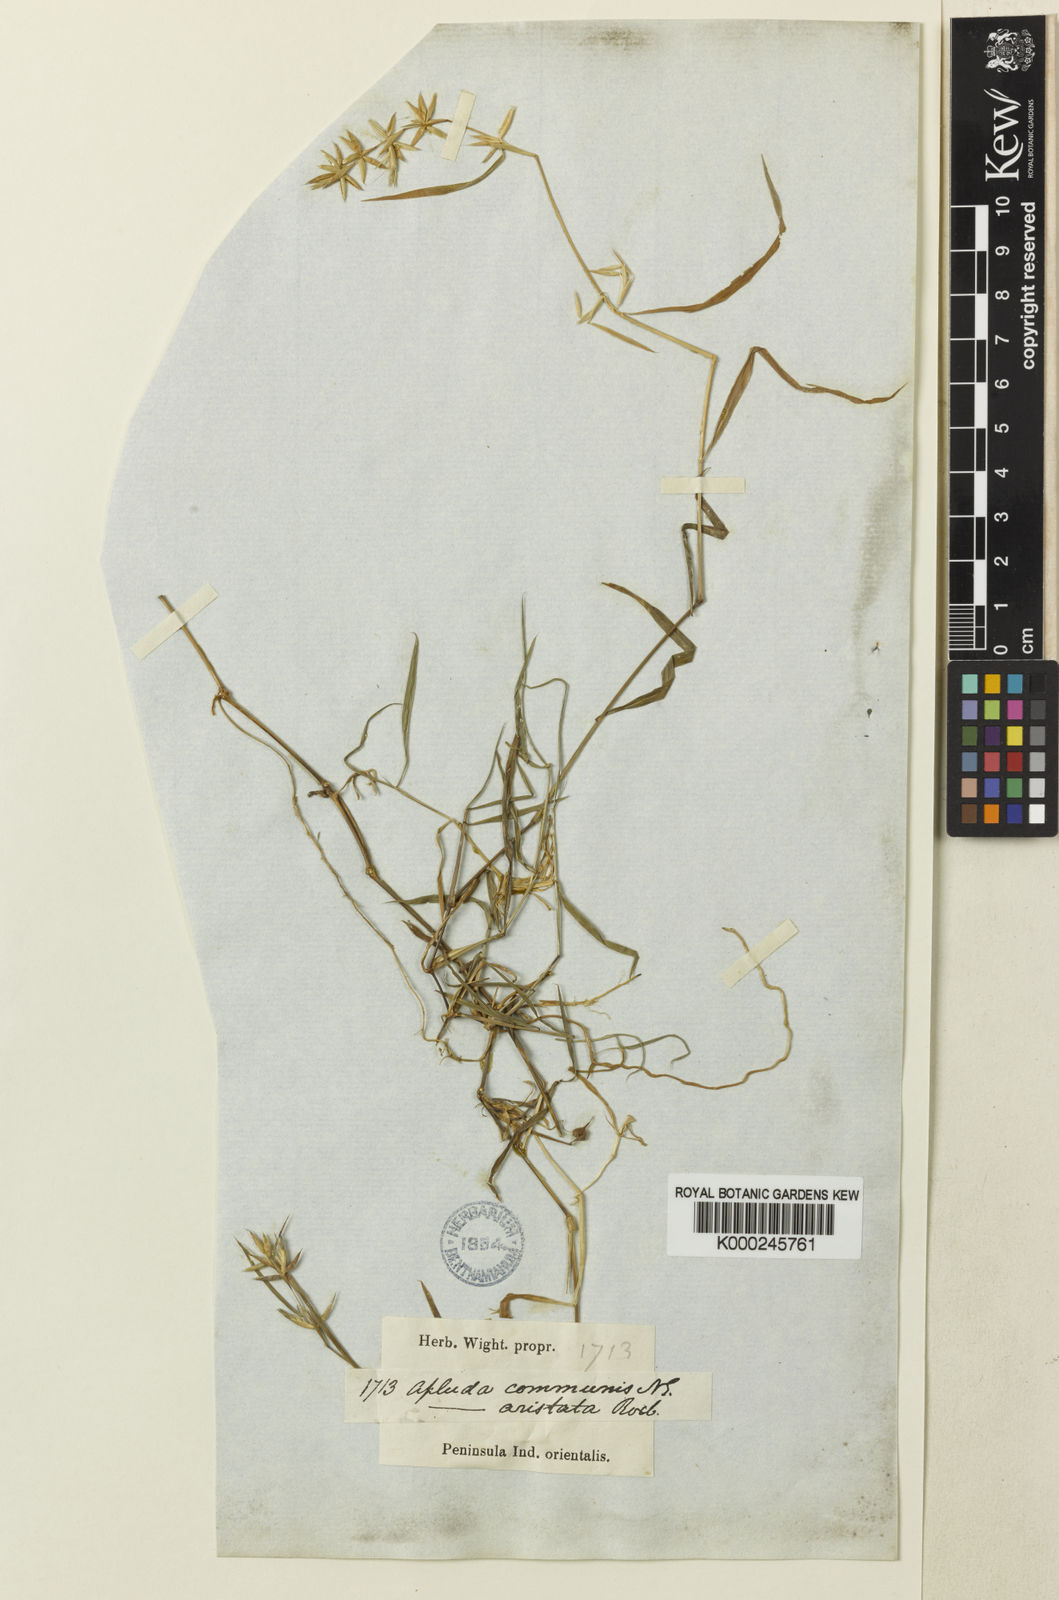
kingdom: Plantae
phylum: Tracheophyta
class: Liliopsida
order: Poales
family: Poaceae
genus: Apluda
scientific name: Apluda mutica
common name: Mauritian grass
